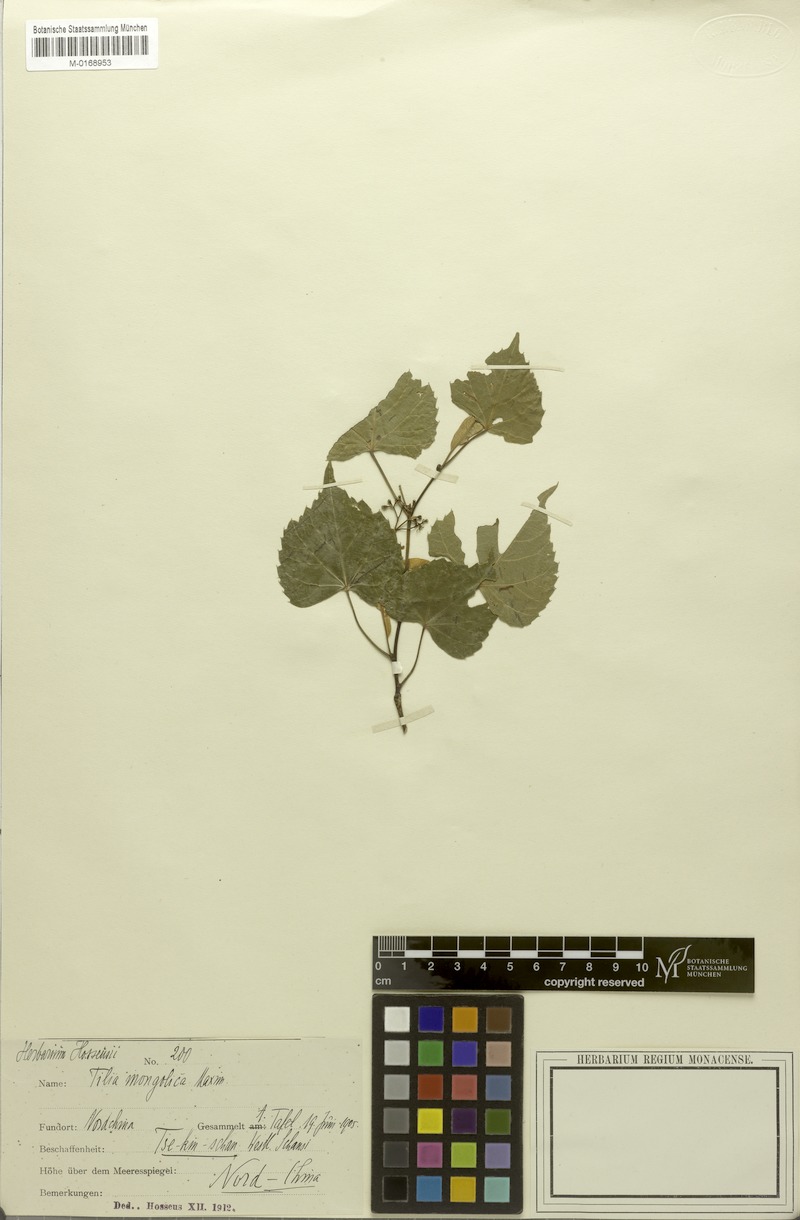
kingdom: Plantae
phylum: Tracheophyta
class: Magnoliopsida
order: Malvales
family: Malvaceae
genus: Tilia
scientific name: Tilia mongolica
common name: Mongolian lime
